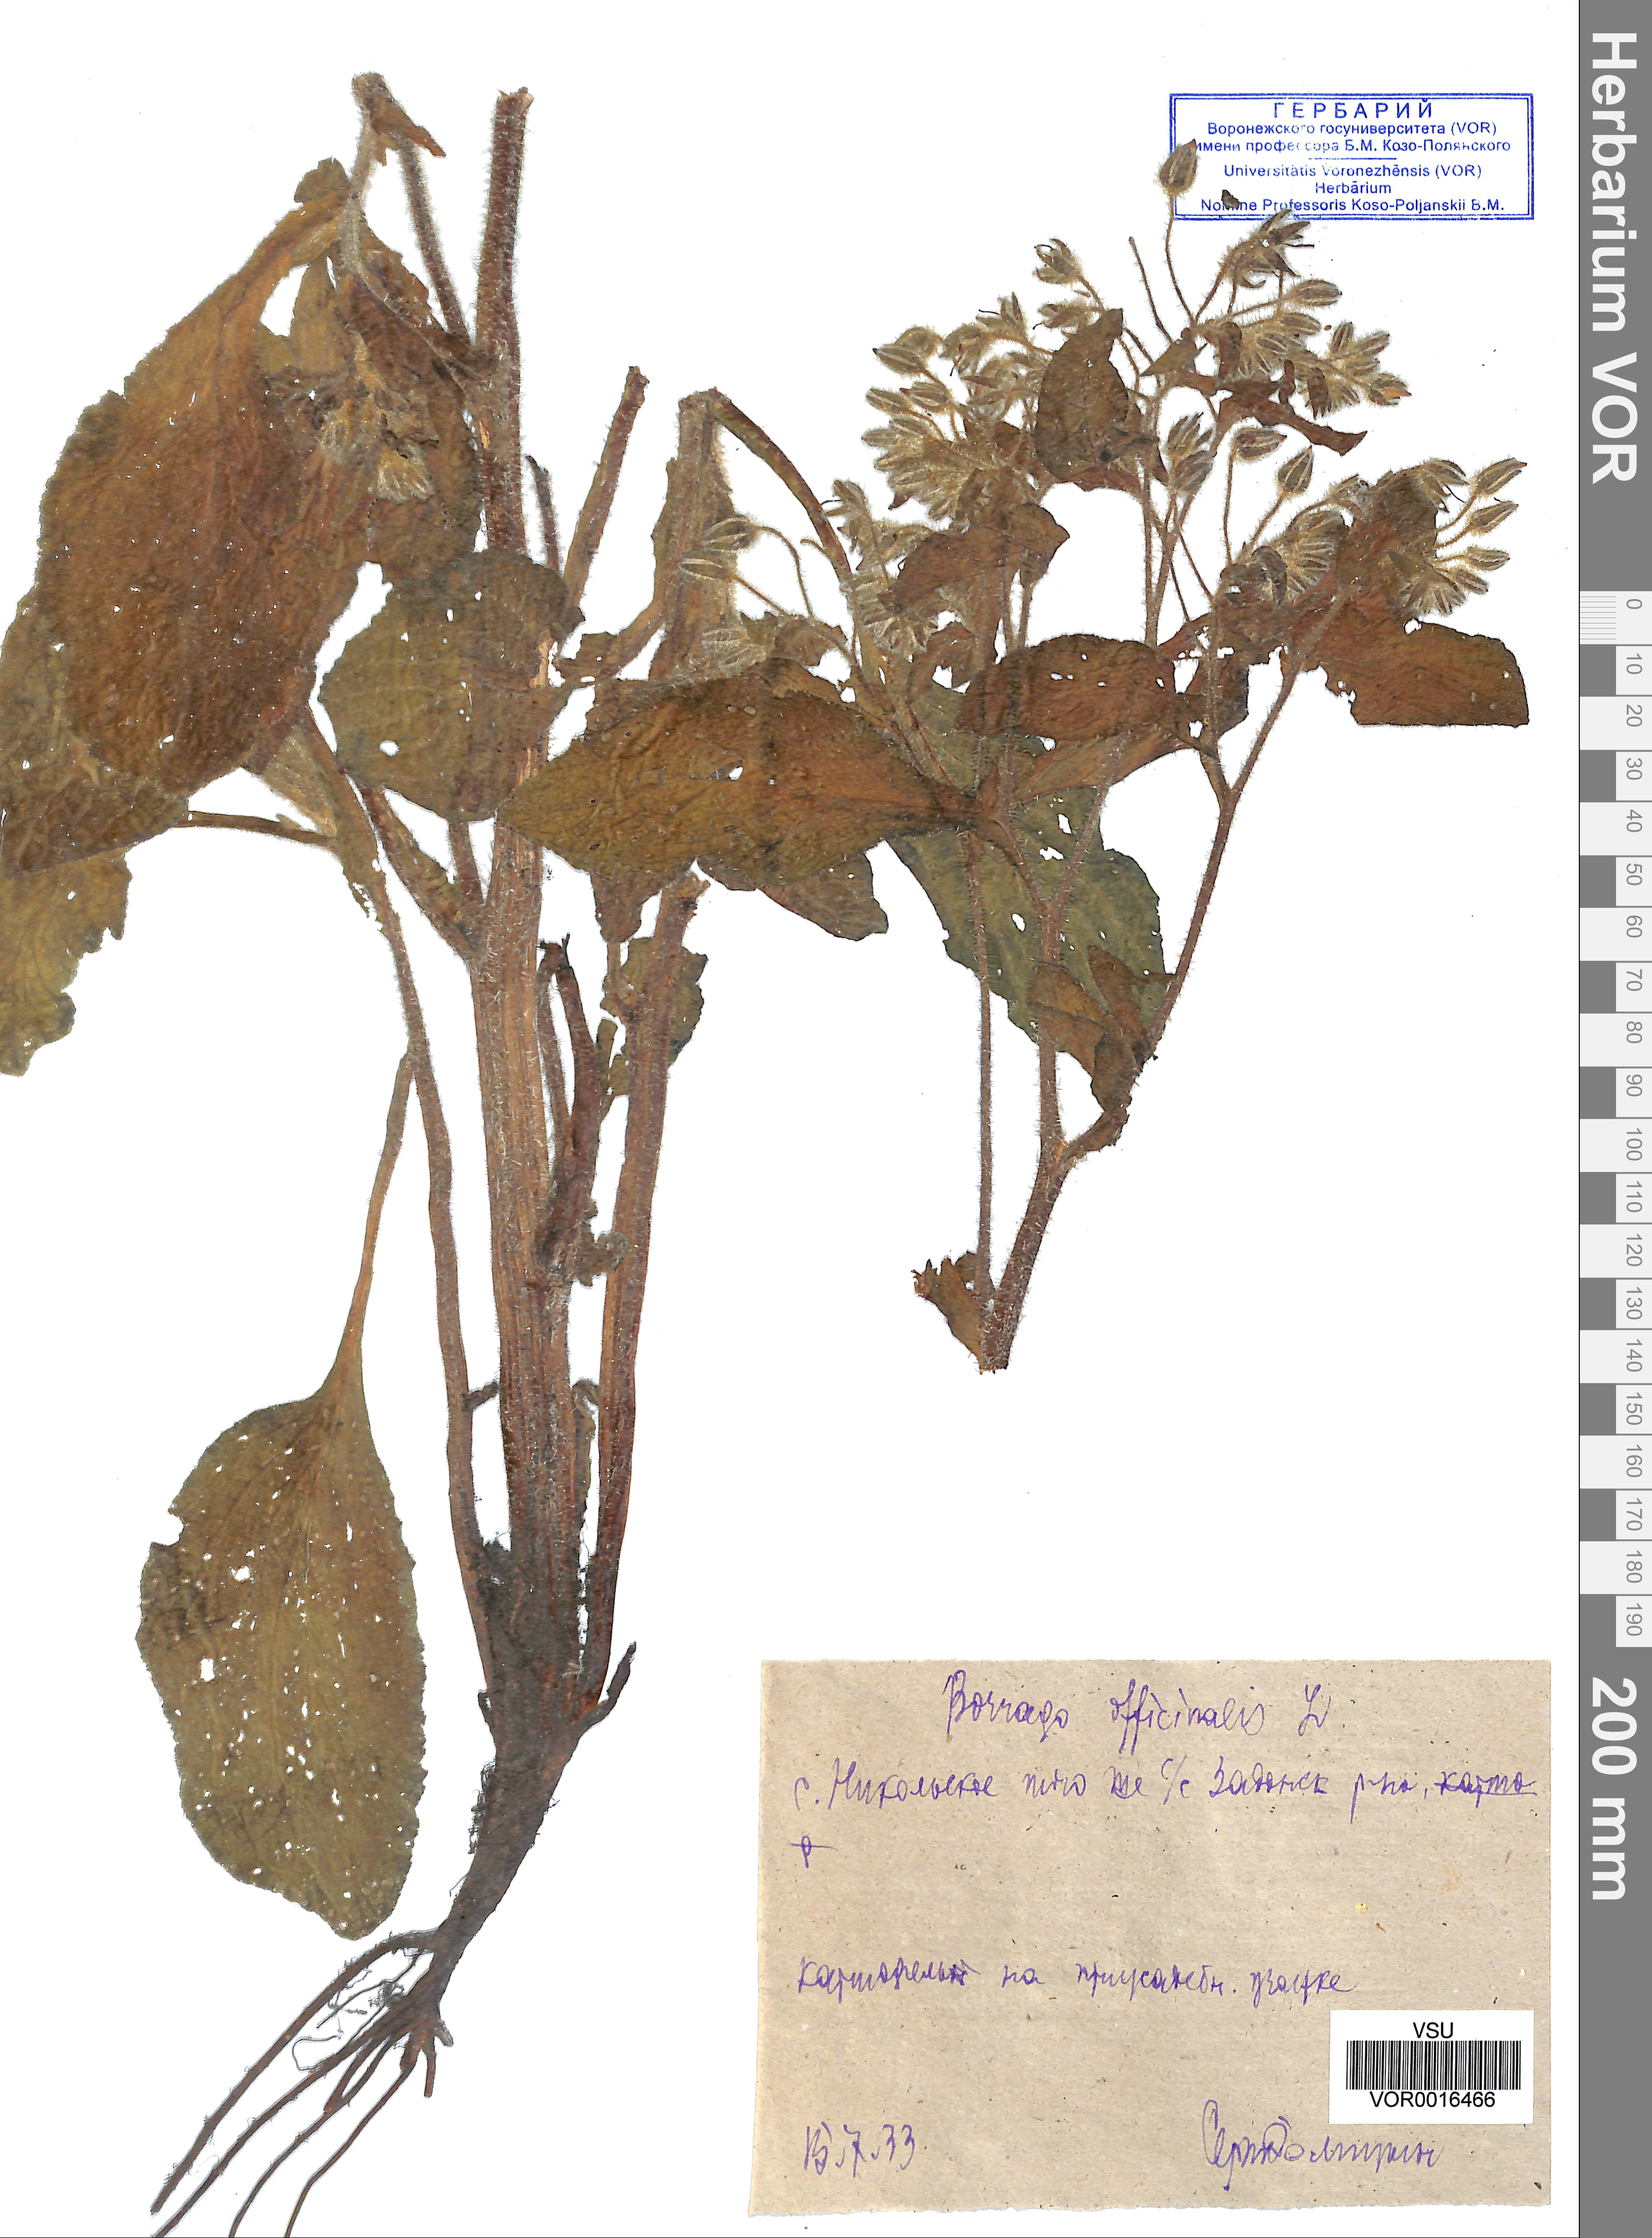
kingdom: Plantae
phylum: Tracheophyta
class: Magnoliopsida
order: Boraginales
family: Boraginaceae
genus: Borago
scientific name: Borago officinalis
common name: Borage
